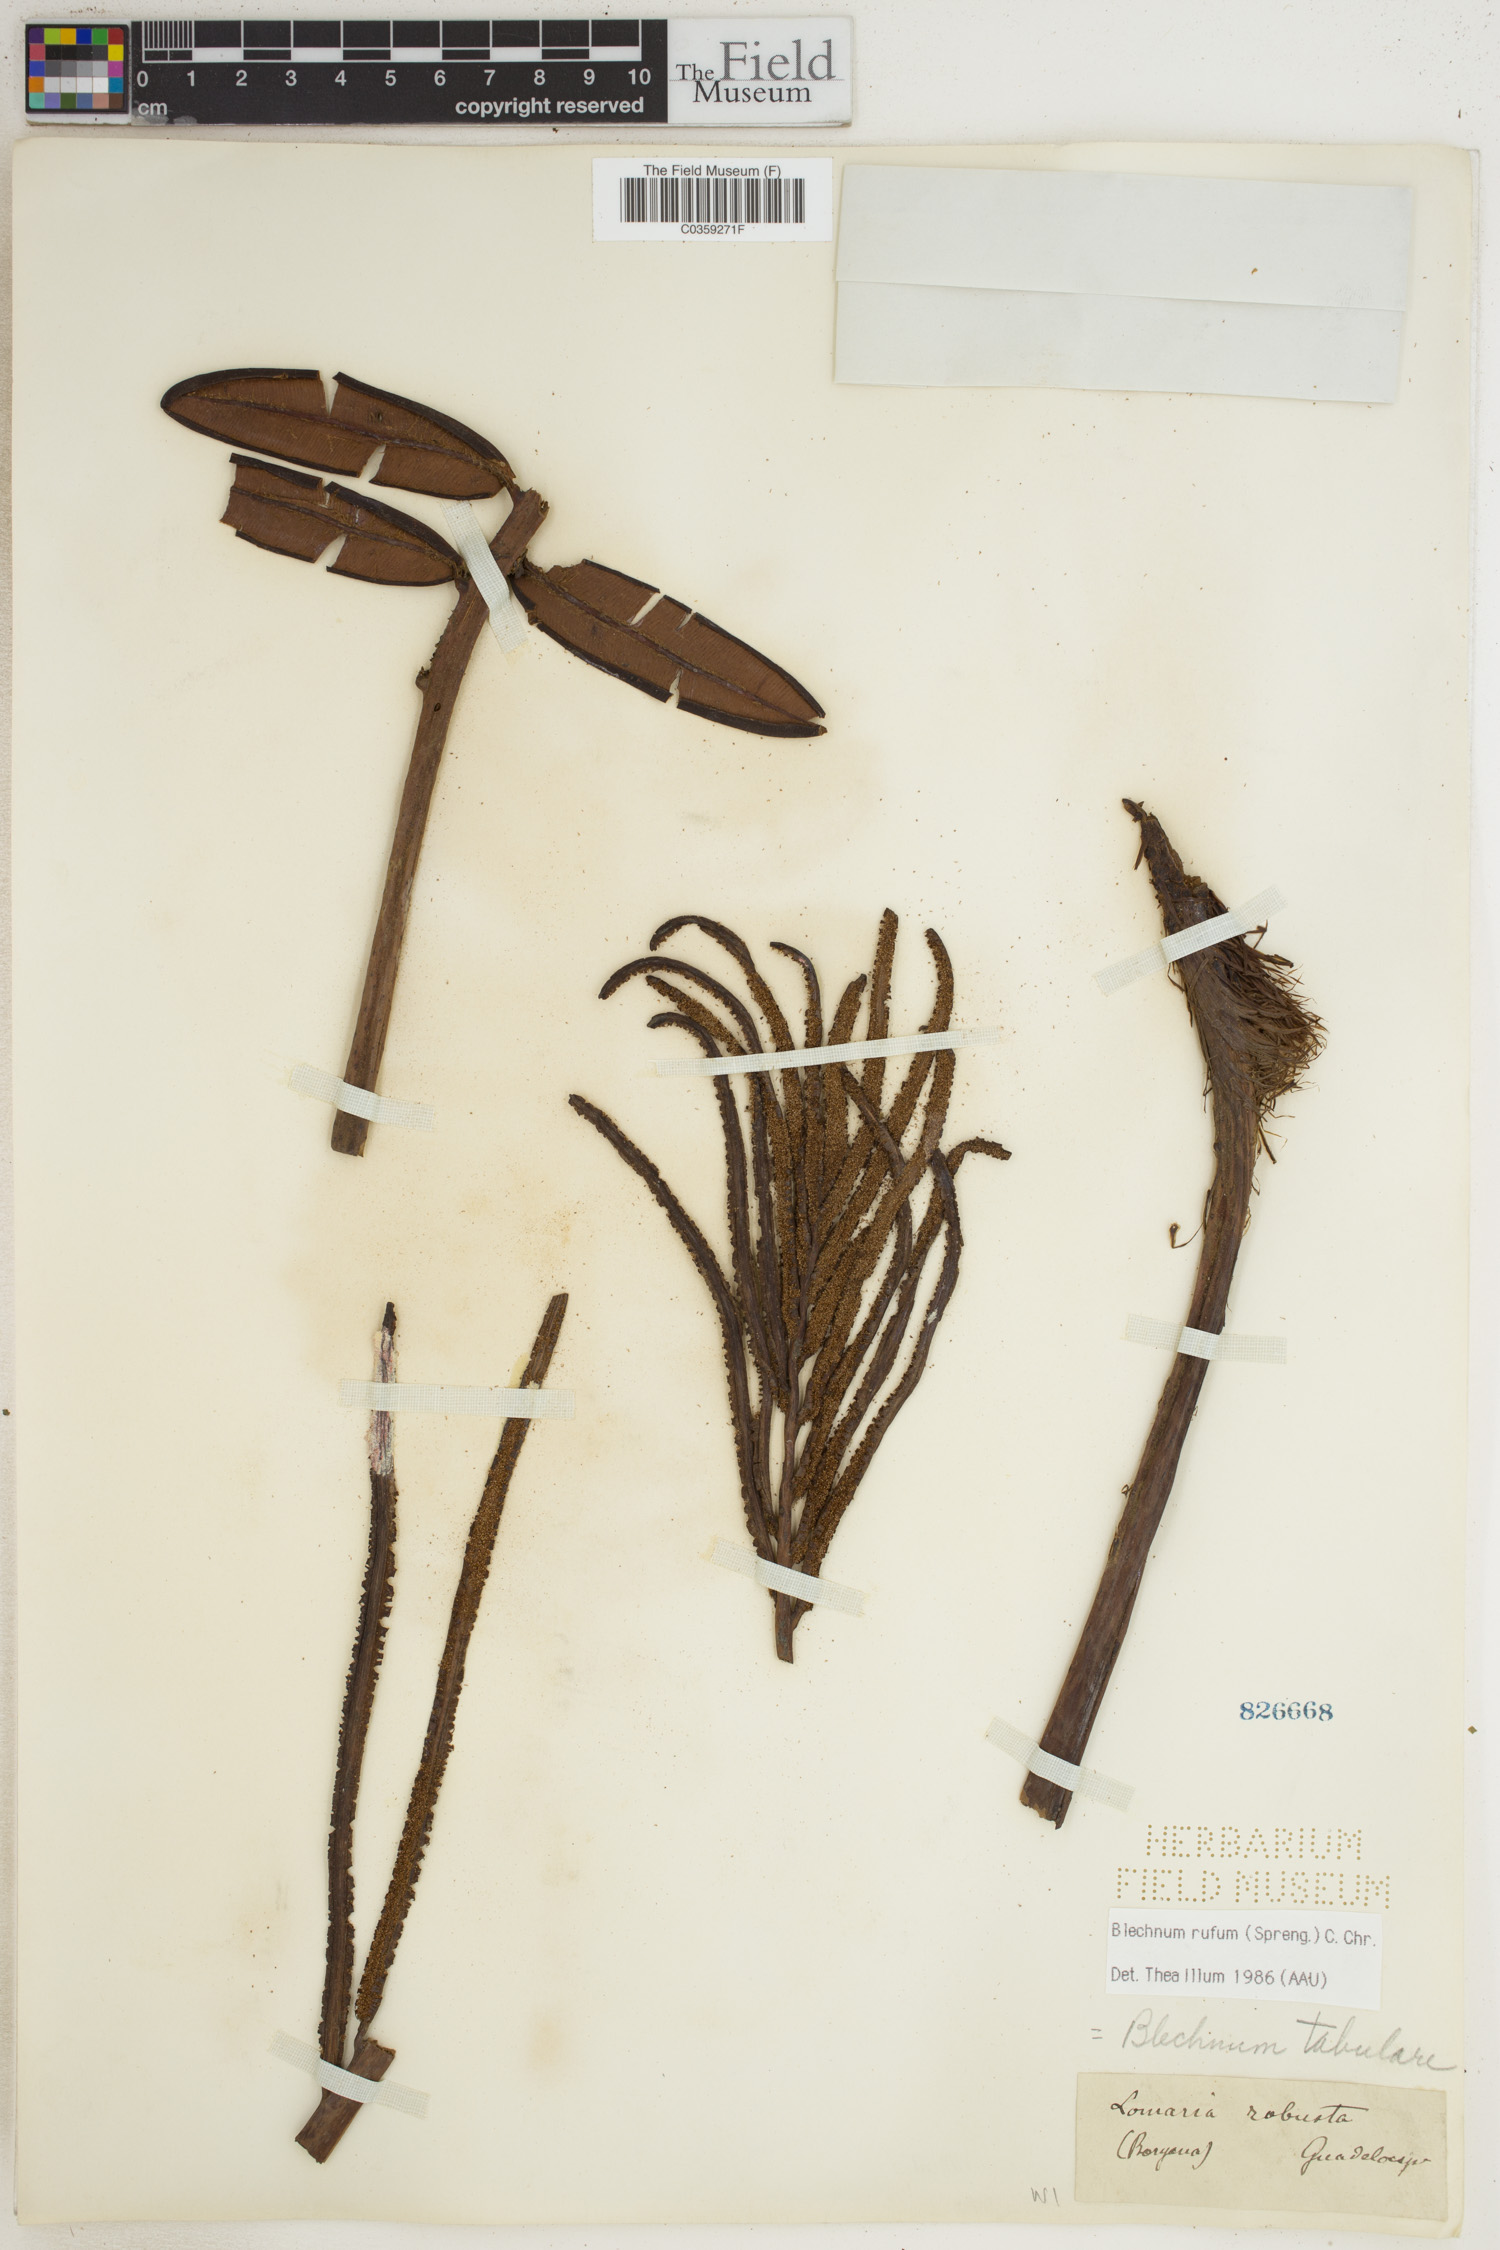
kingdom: Plantae
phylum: Tracheophyta
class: Polypodiopsida
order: Polypodiales
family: Blechnaceae
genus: Lomariocycas
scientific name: Lomariocycas rufa
